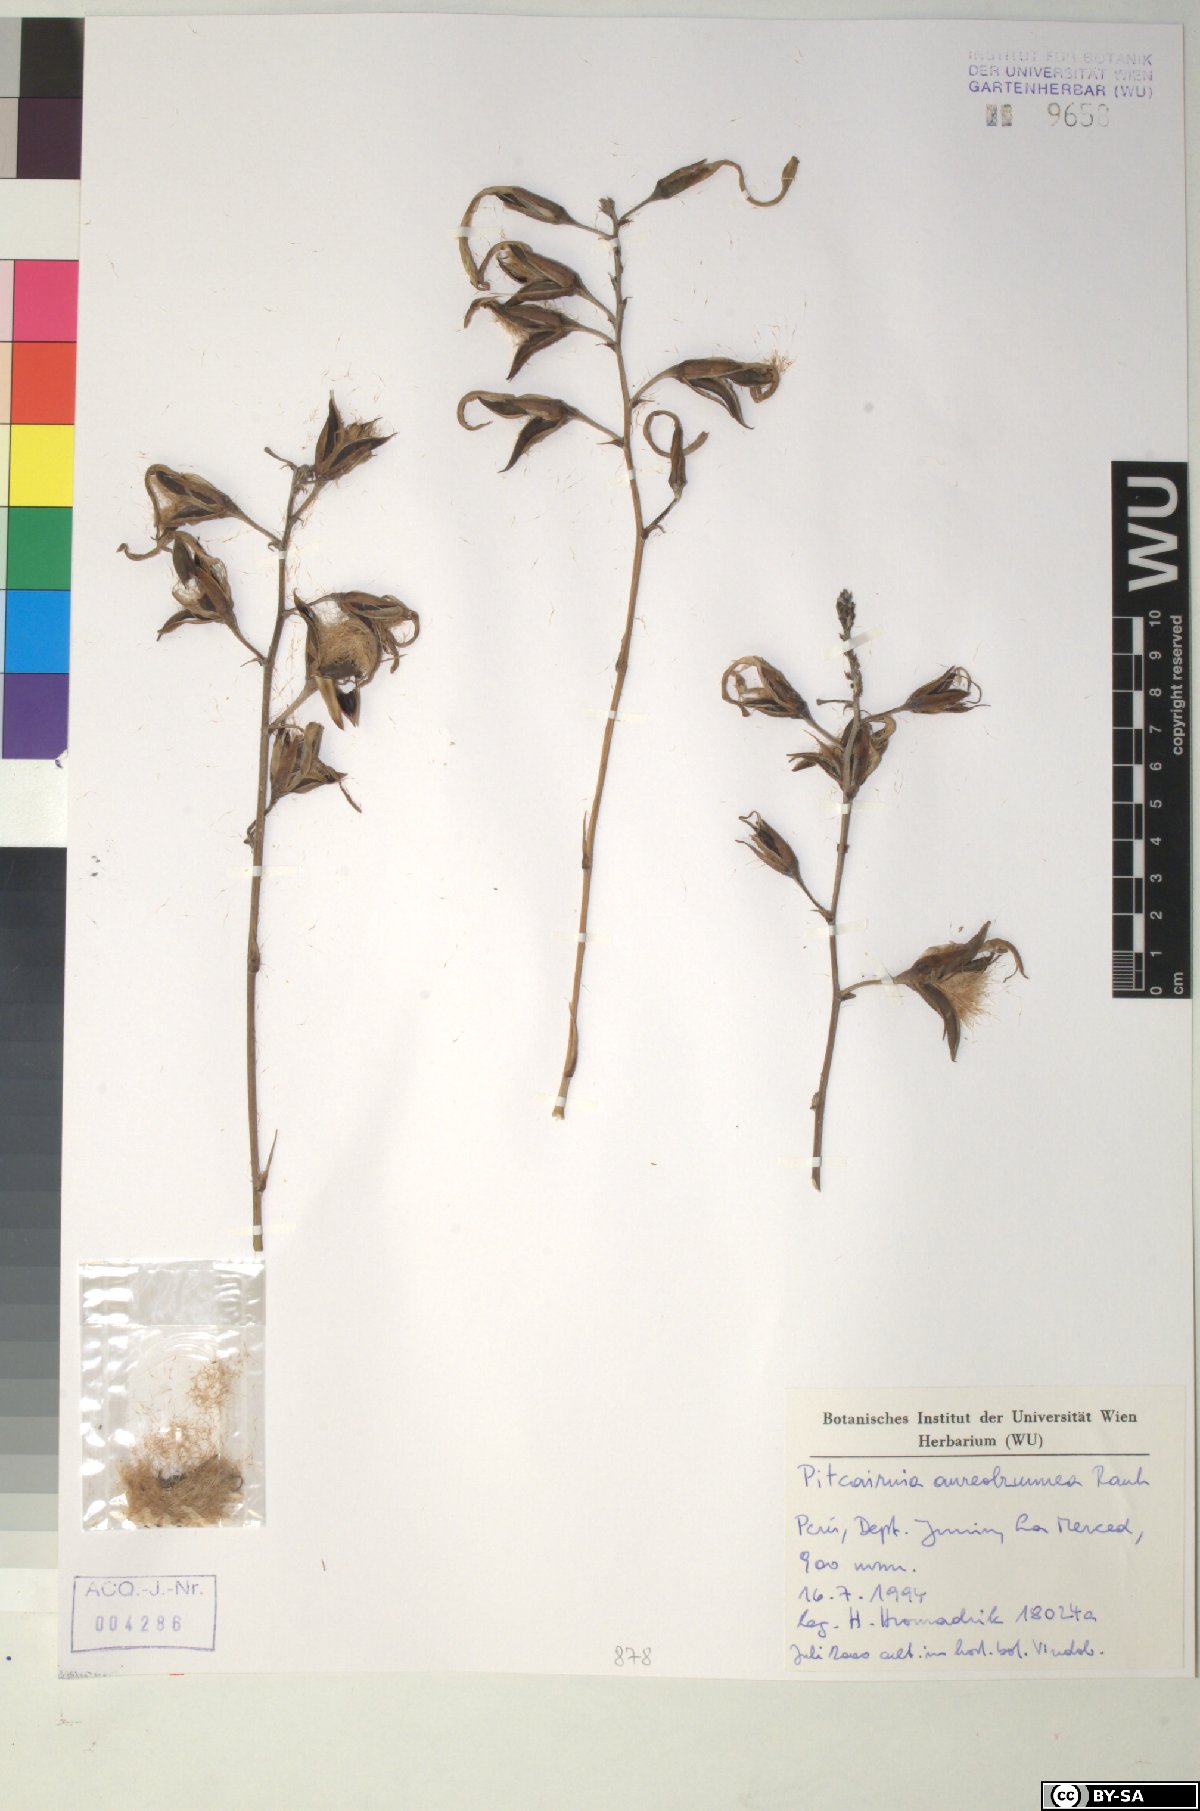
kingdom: Plantae
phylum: Tracheophyta
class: Liliopsida
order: Poales
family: Bromeliaceae
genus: Pitcairnia
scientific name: Pitcairnia aureobrunnea
